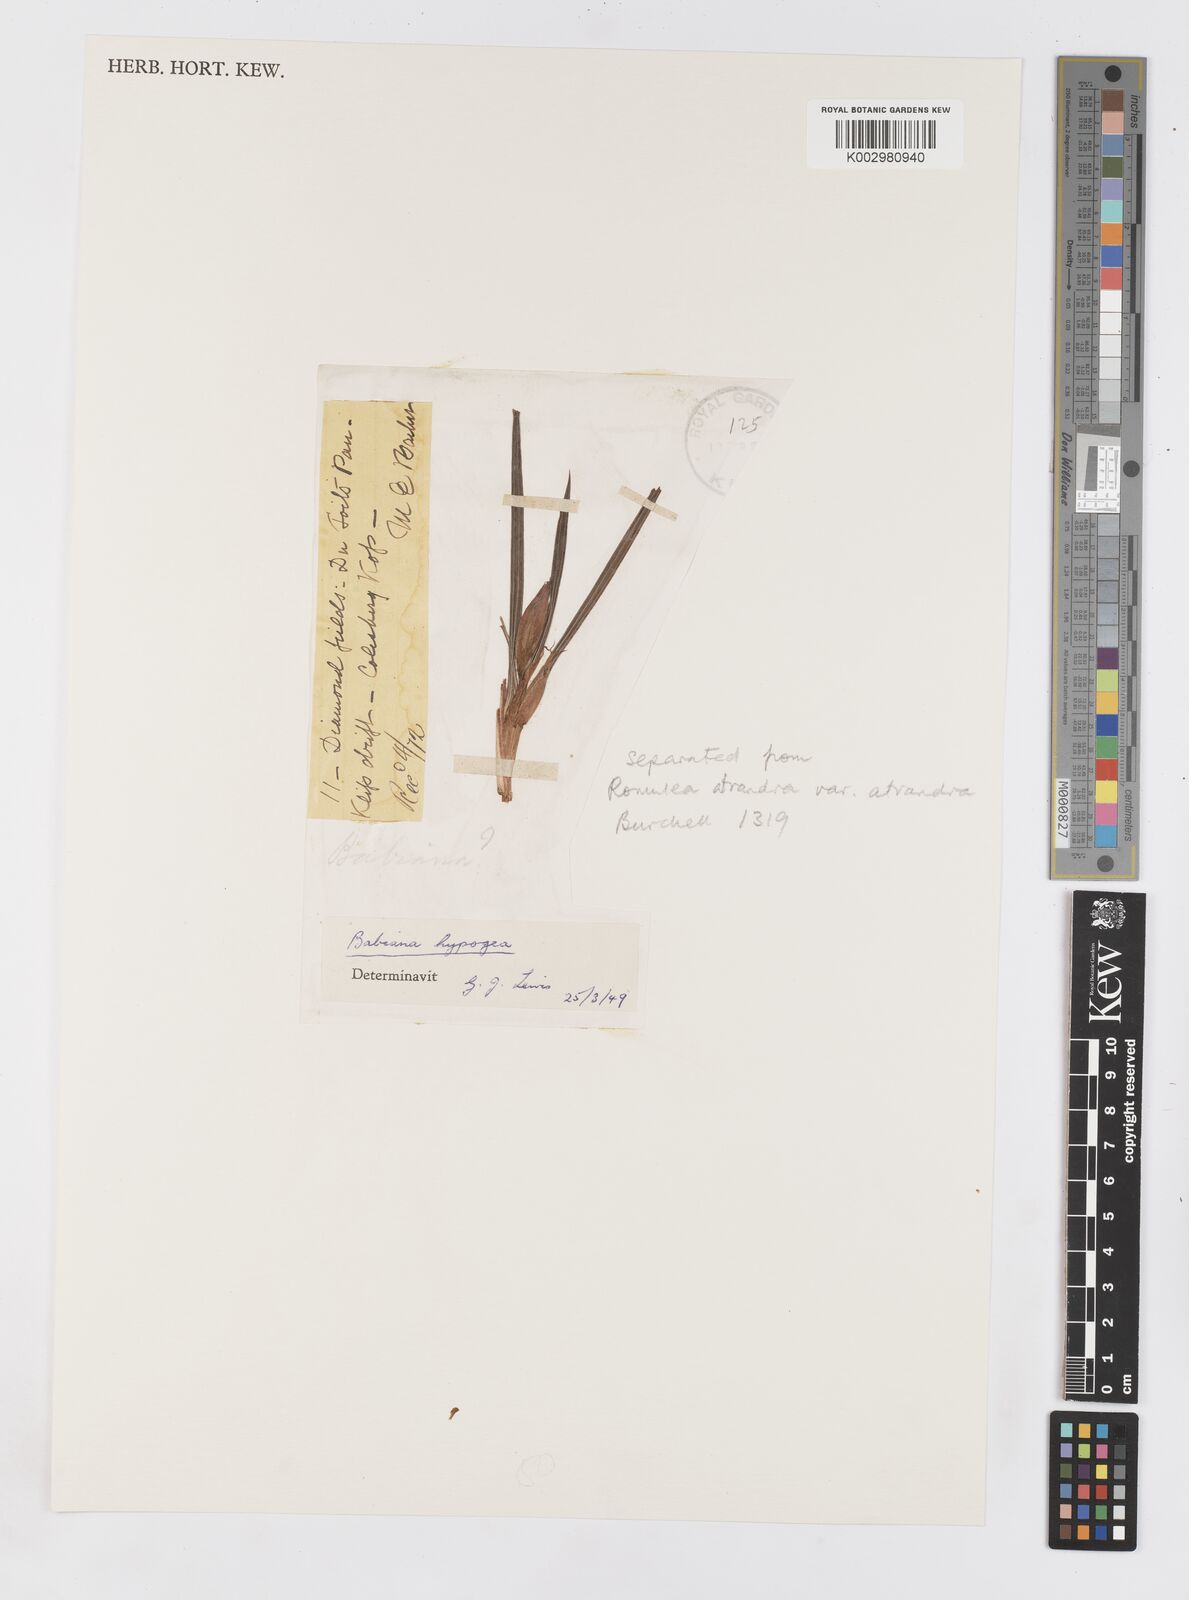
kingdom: Plantae
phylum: Tracheophyta
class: Liliopsida
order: Asparagales
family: Iridaceae
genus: Babiana
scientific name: Babiana hypogaea
